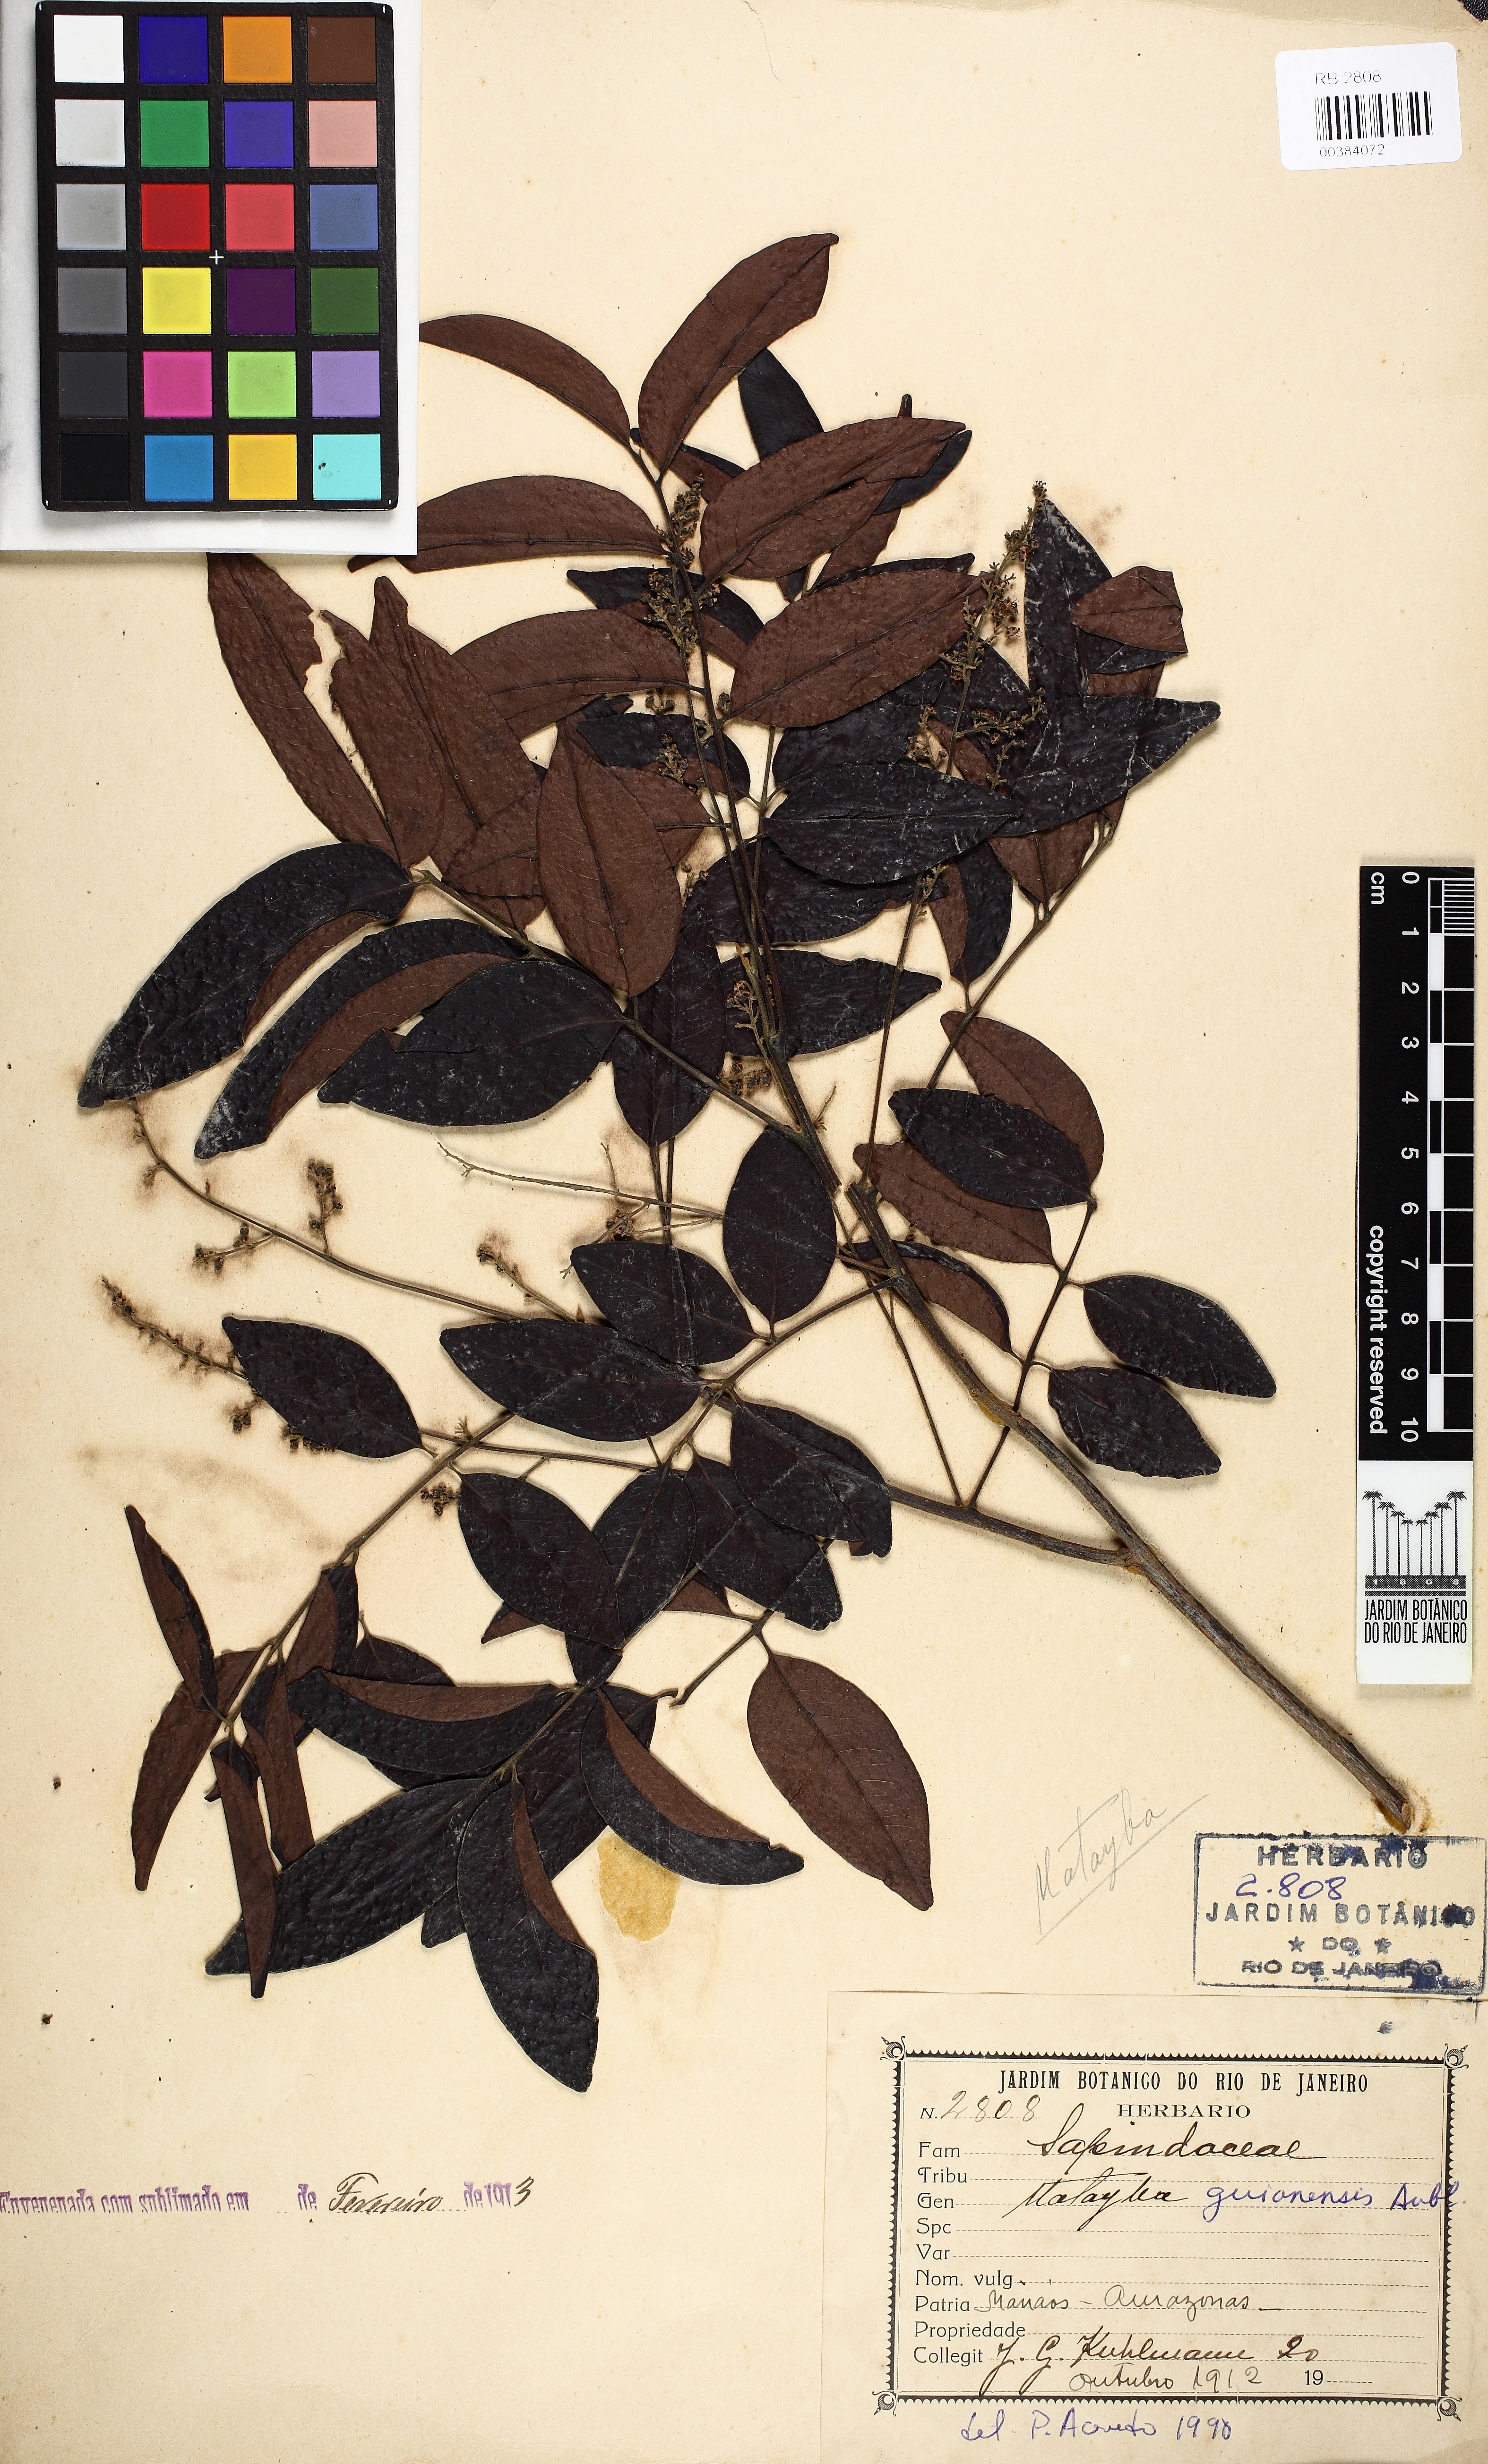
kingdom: Plantae
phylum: Tracheophyta
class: Magnoliopsida
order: Sapindales
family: Sapindaceae
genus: Matayba
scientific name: Matayba guianensis
